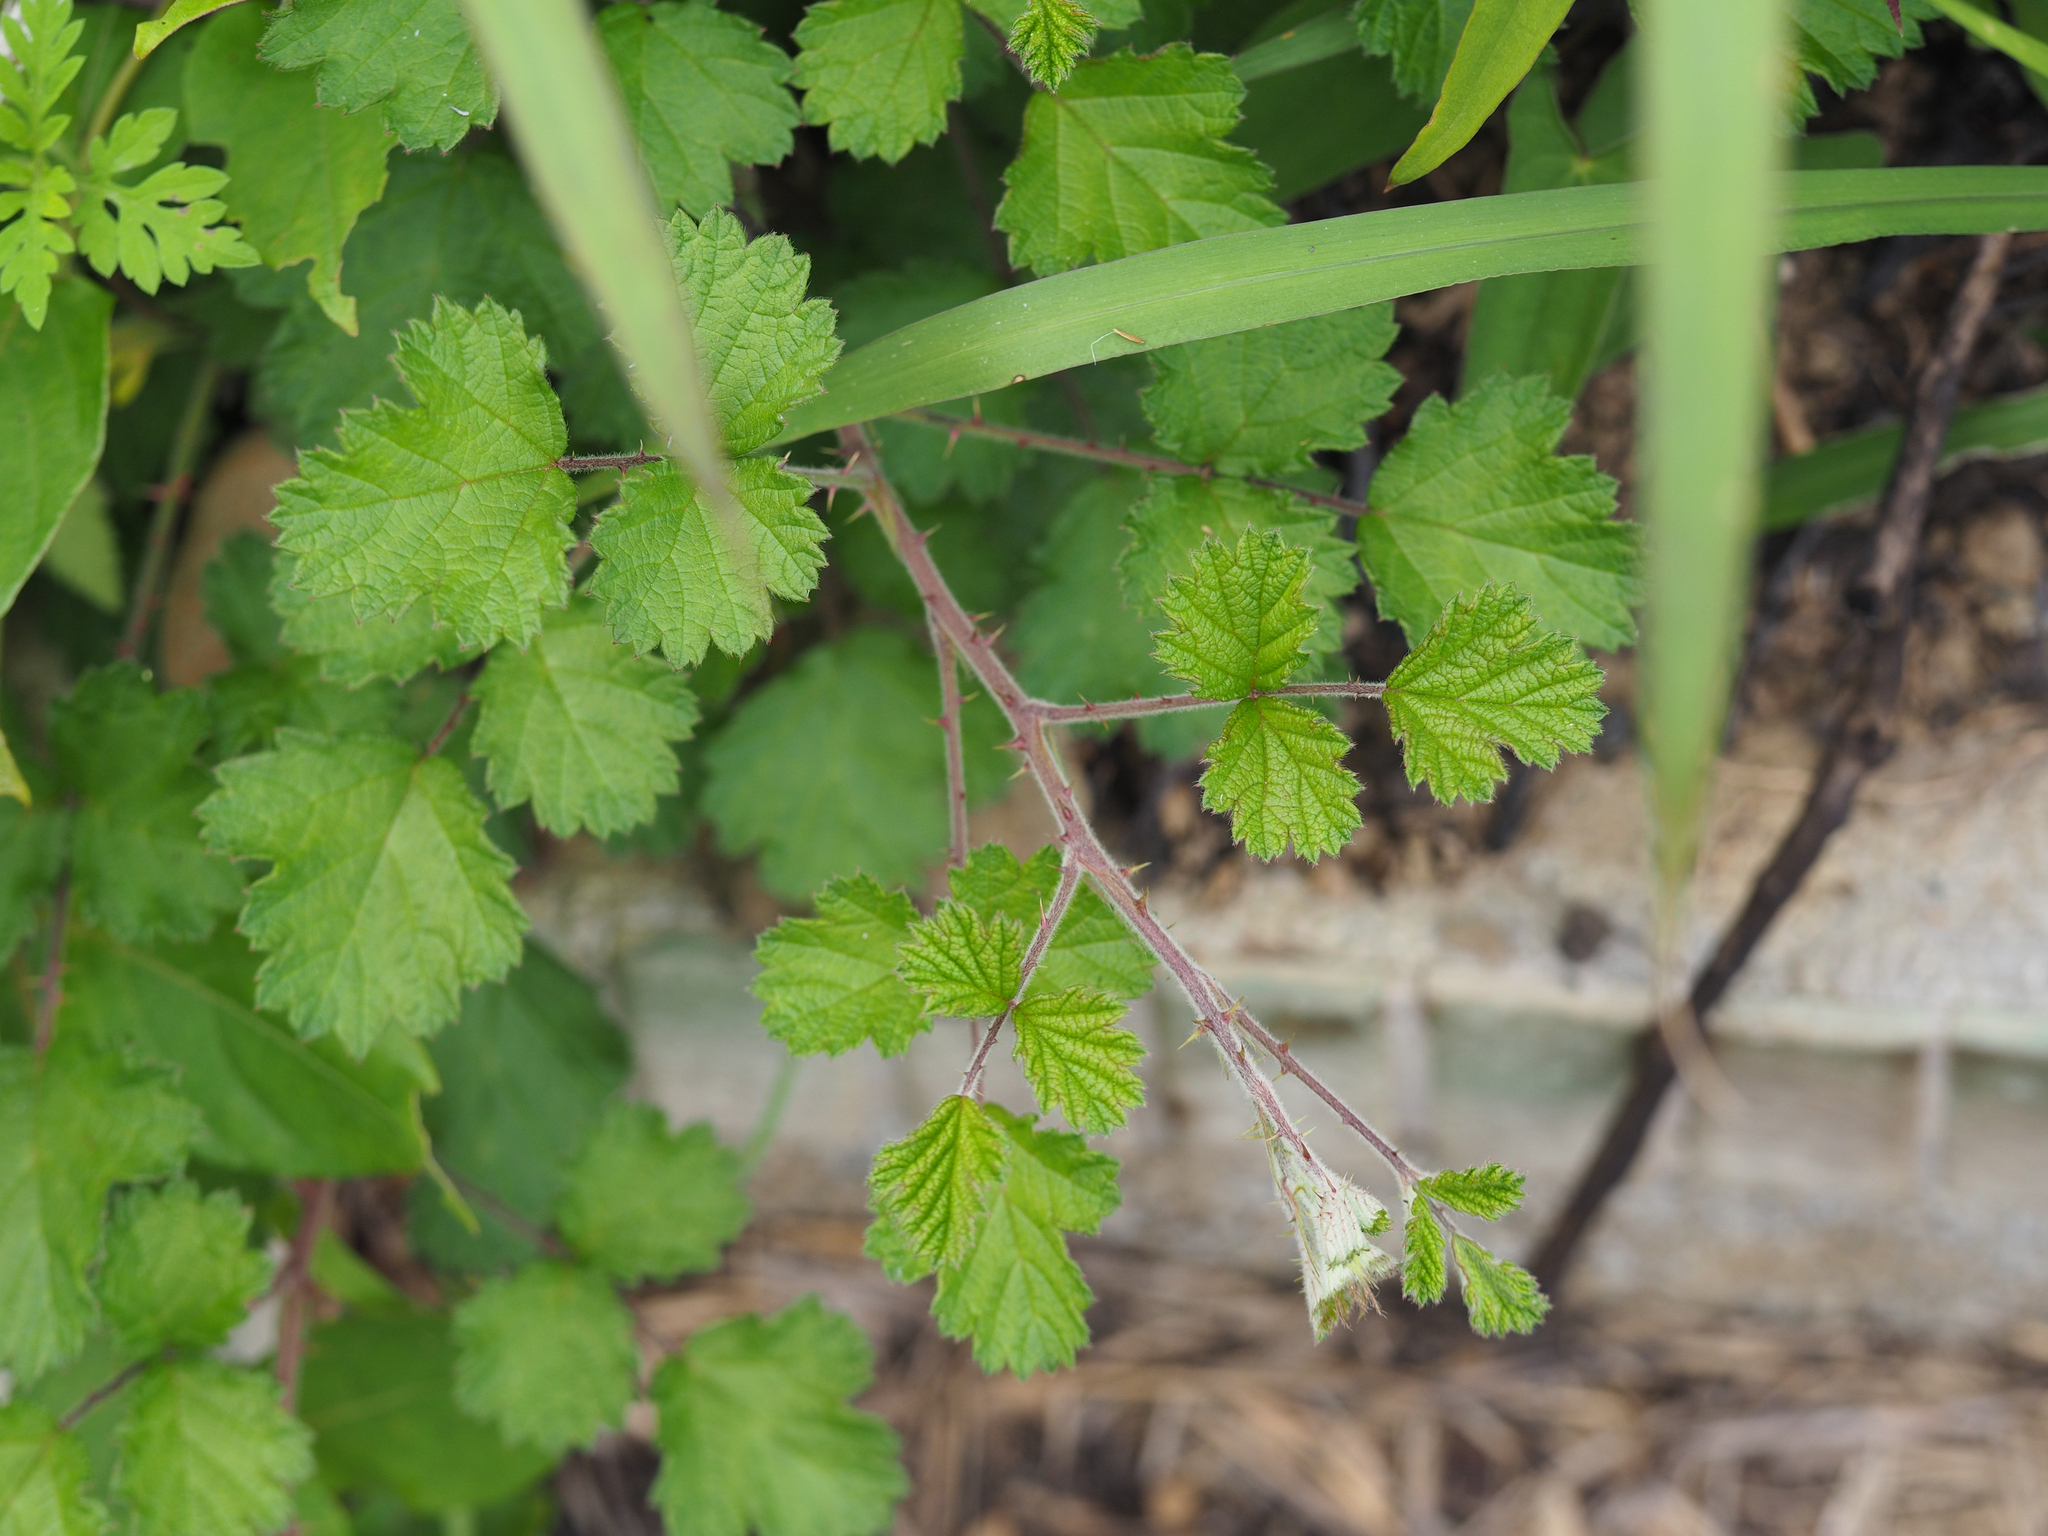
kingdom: Plantae
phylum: Tracheophyta
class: Magnoliopsida
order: Rosales
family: Rosaceae
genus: Rubus
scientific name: Rubus parvifolius
